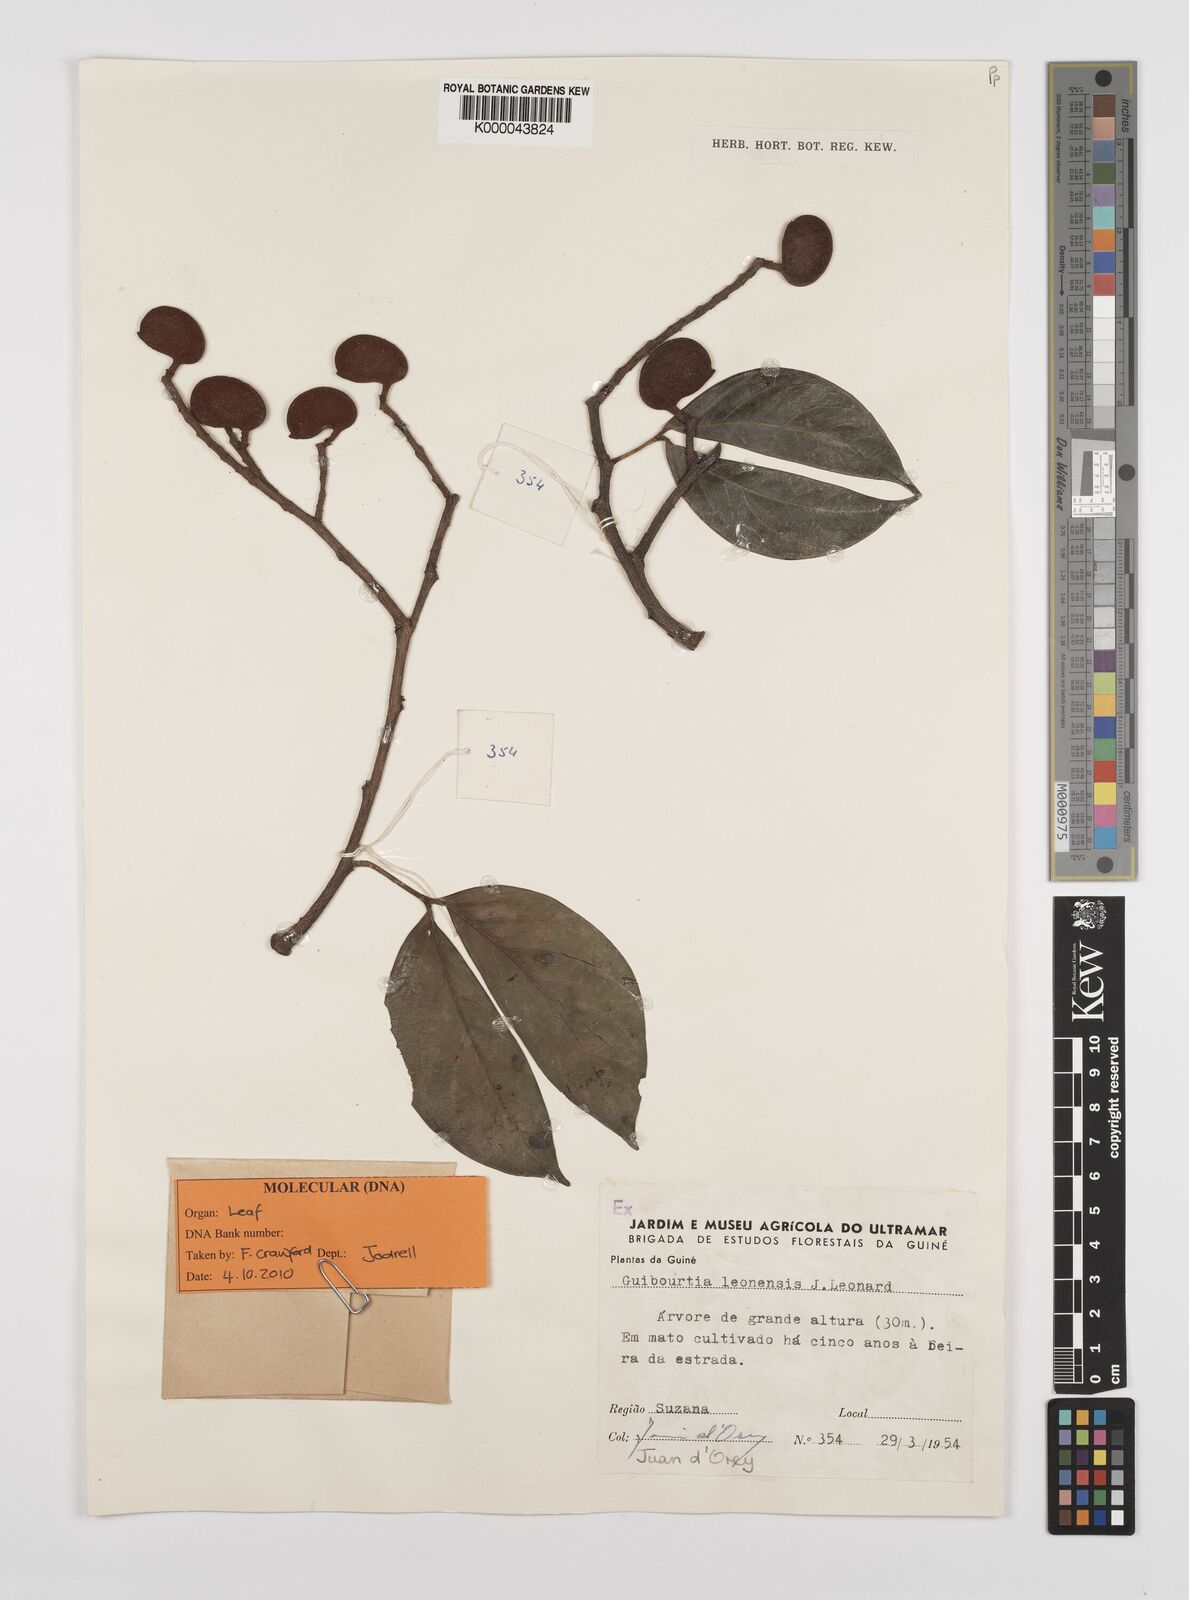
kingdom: Plantae
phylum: Tracheophyta
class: Magnoliopsida
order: Fabales
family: Fabaceae
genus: Guibourtia
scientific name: Guibourtia
